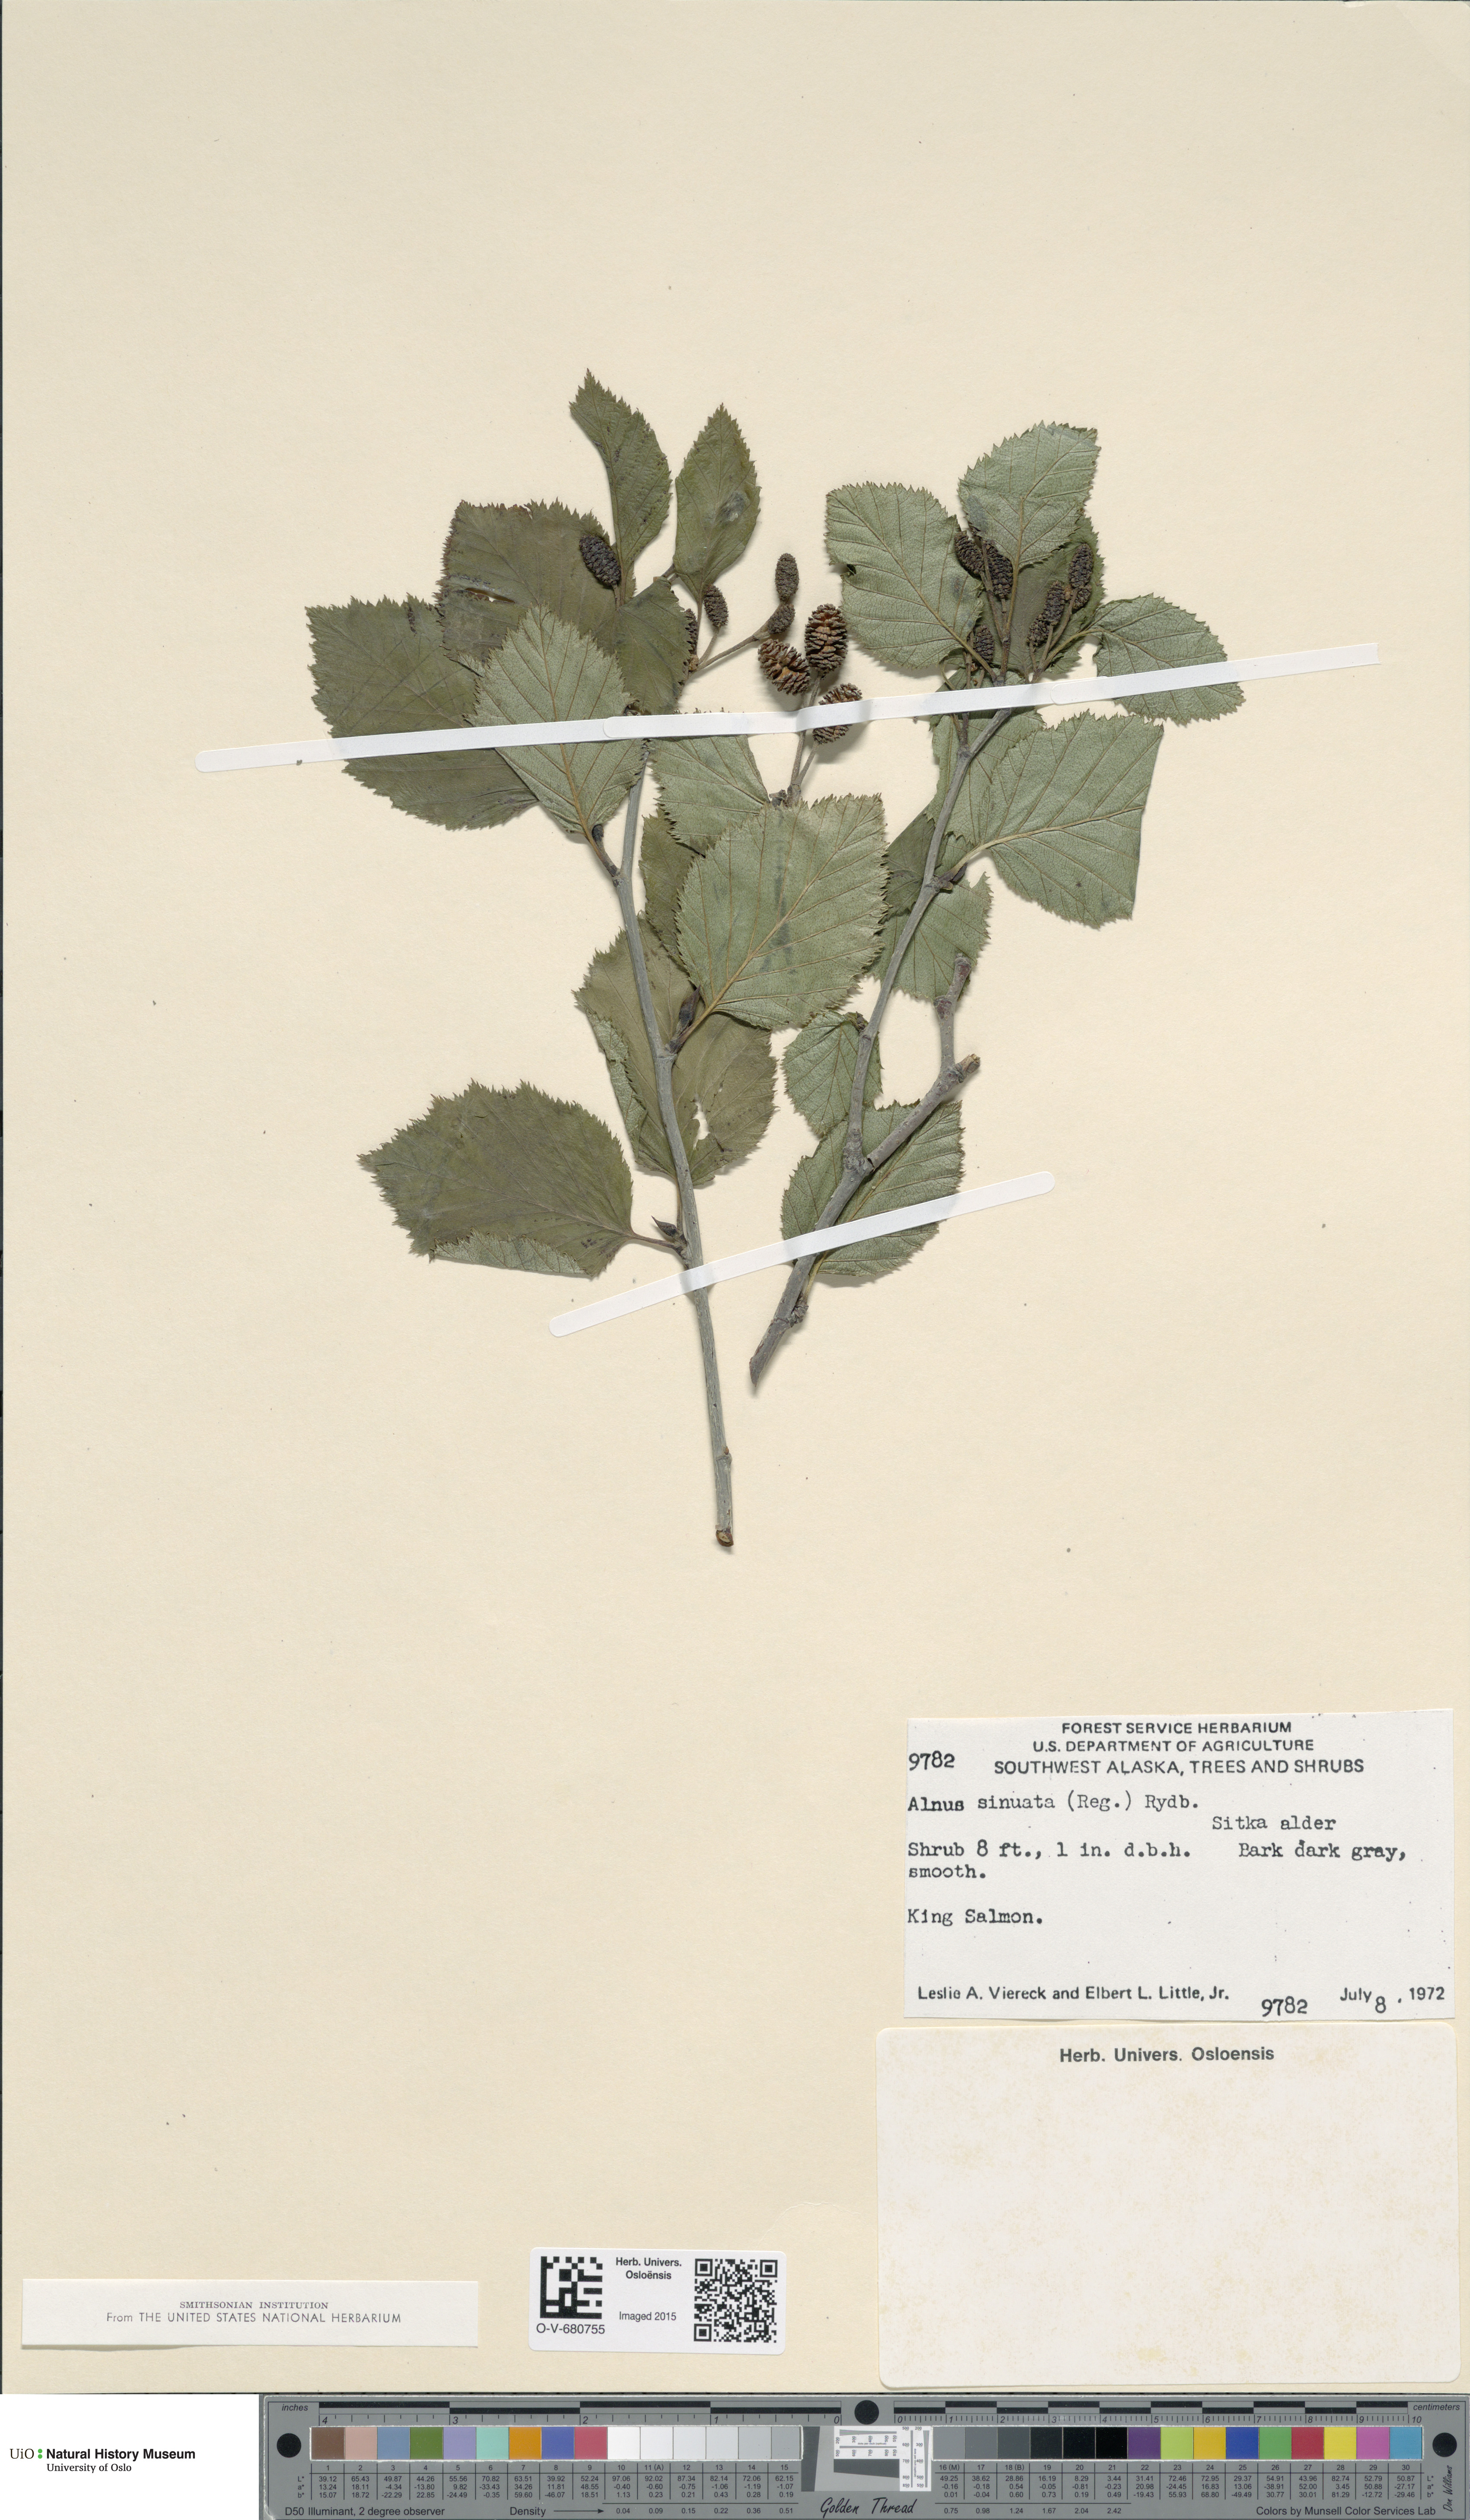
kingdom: Plantae
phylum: Tracheophyta
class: Magnoliopsida
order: Fagales
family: Betulaceae
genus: Alnus
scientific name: Alnus alnobetula
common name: Green alder
